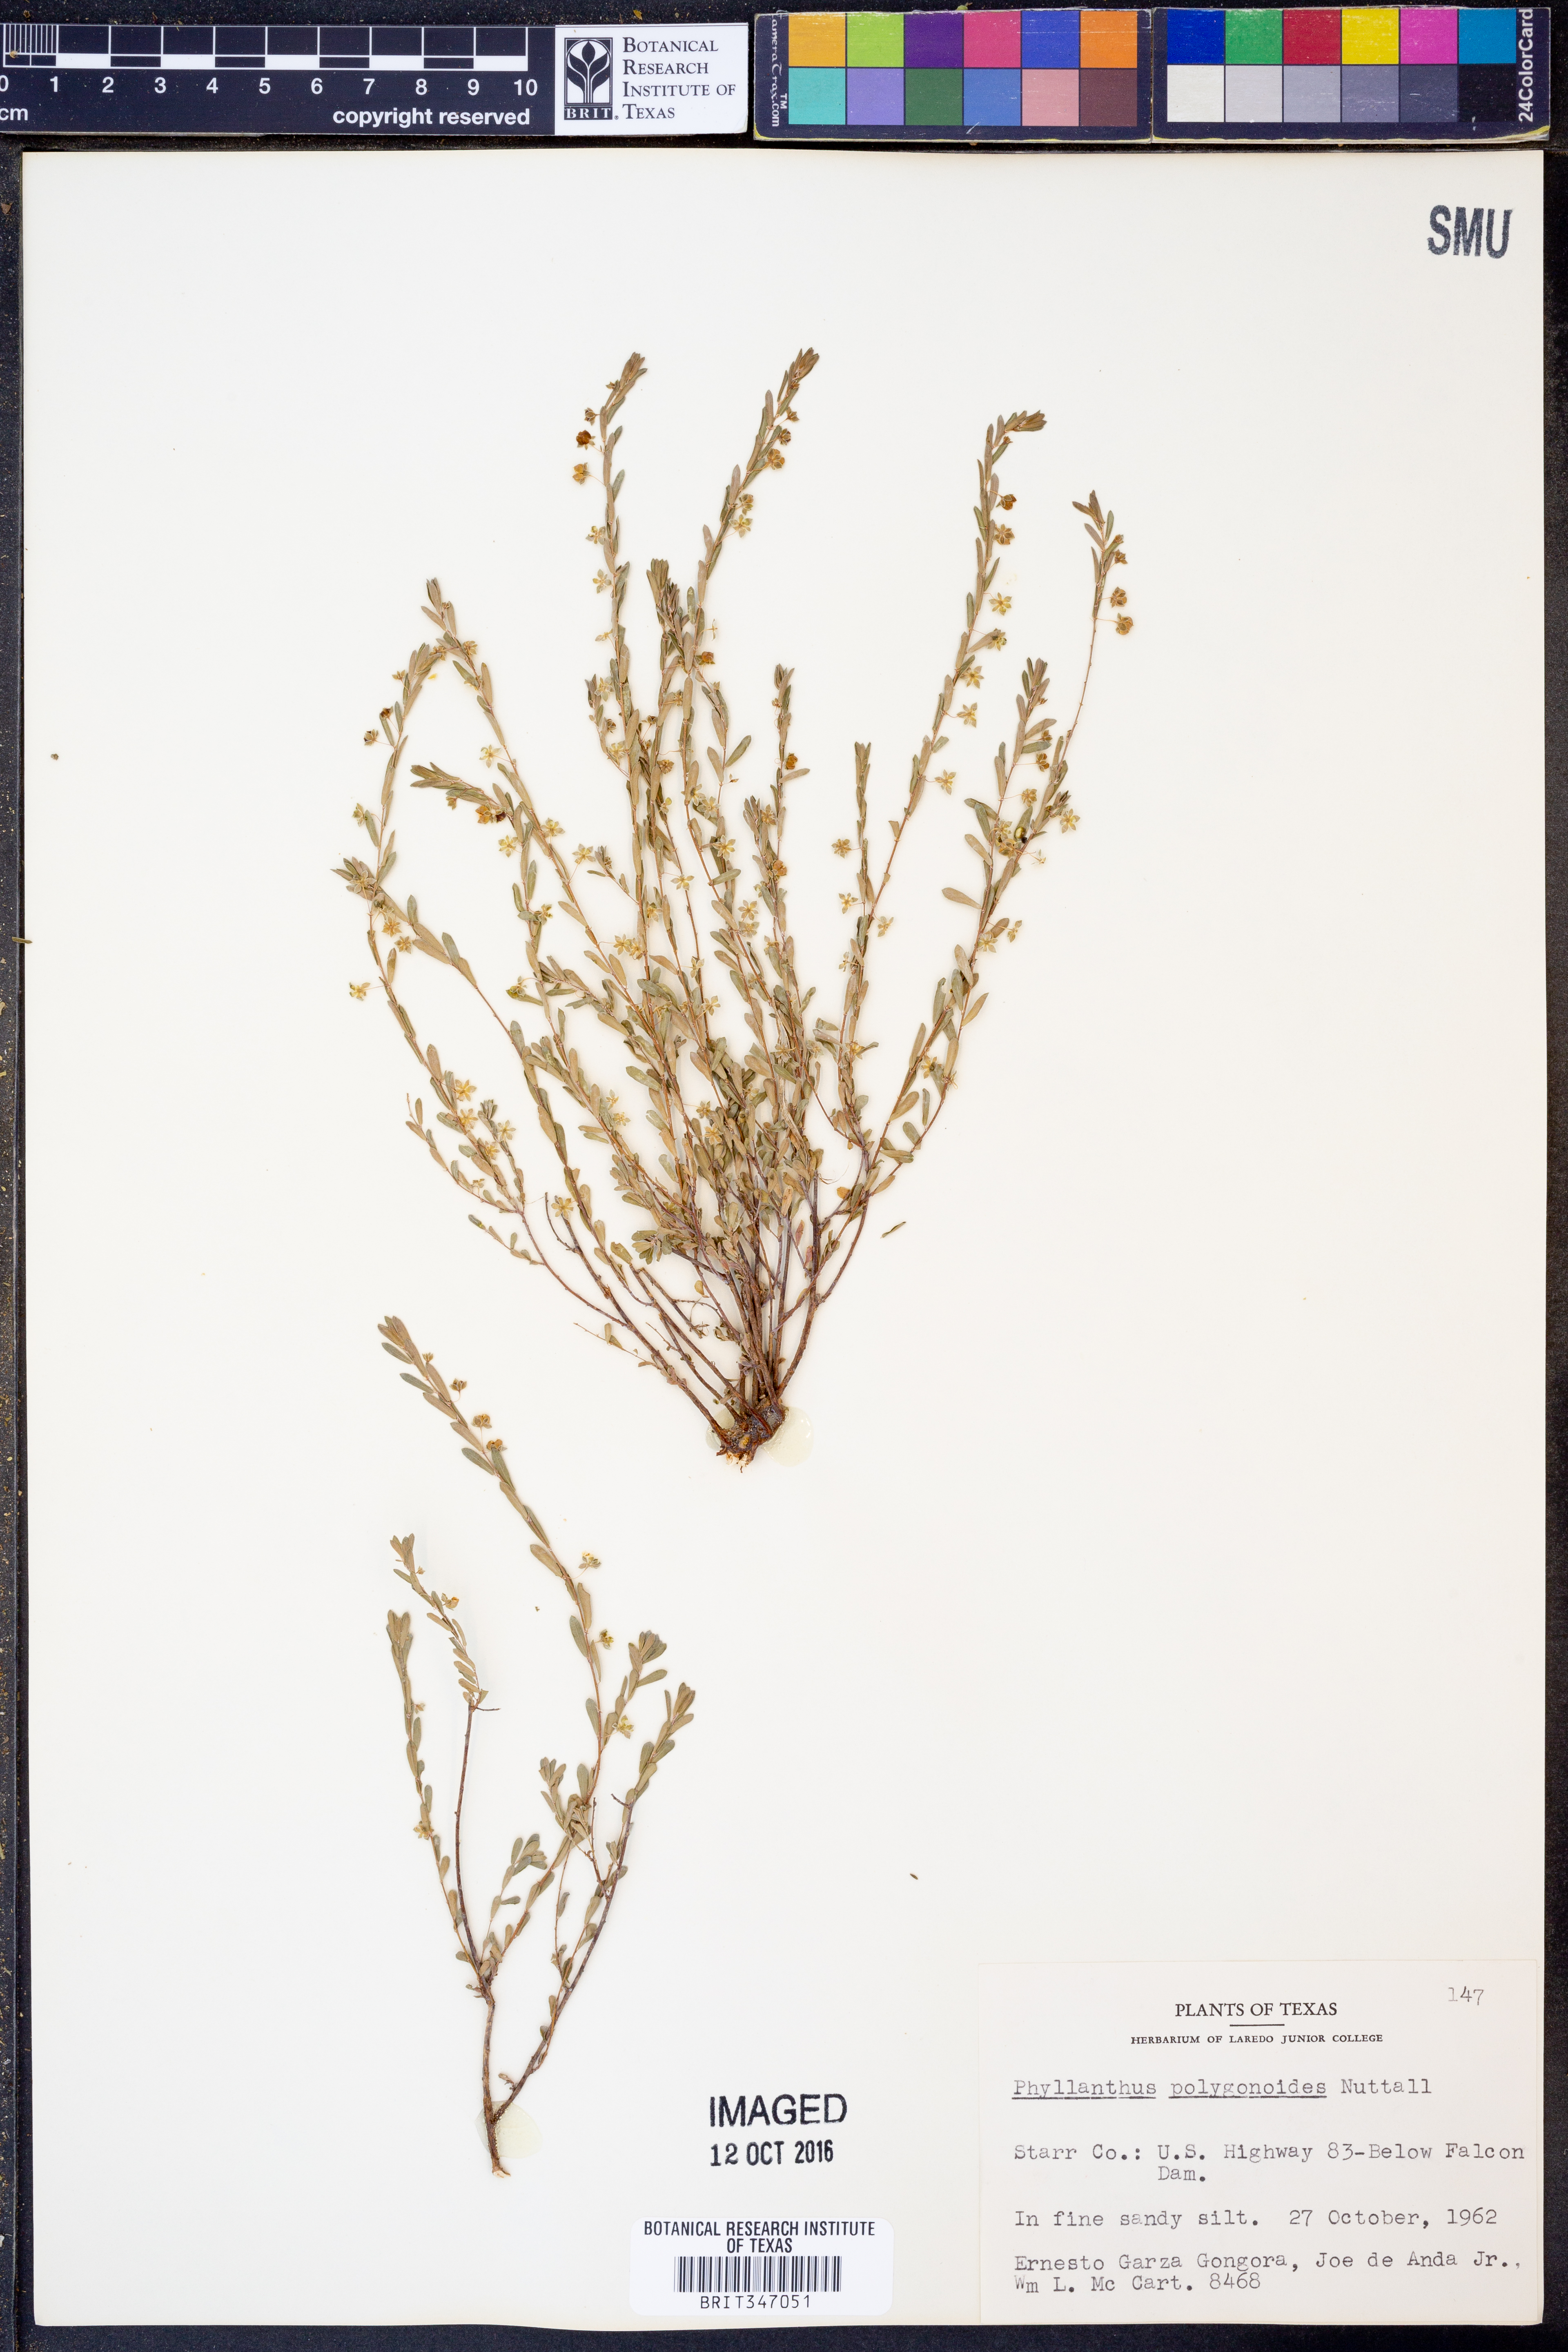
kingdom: Plantae
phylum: Tracheophyta
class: Magnoliopsida
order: Malpighiales
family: Phyllanthaceae
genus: Phyllanthus
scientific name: Phyllanthus polygonoides
